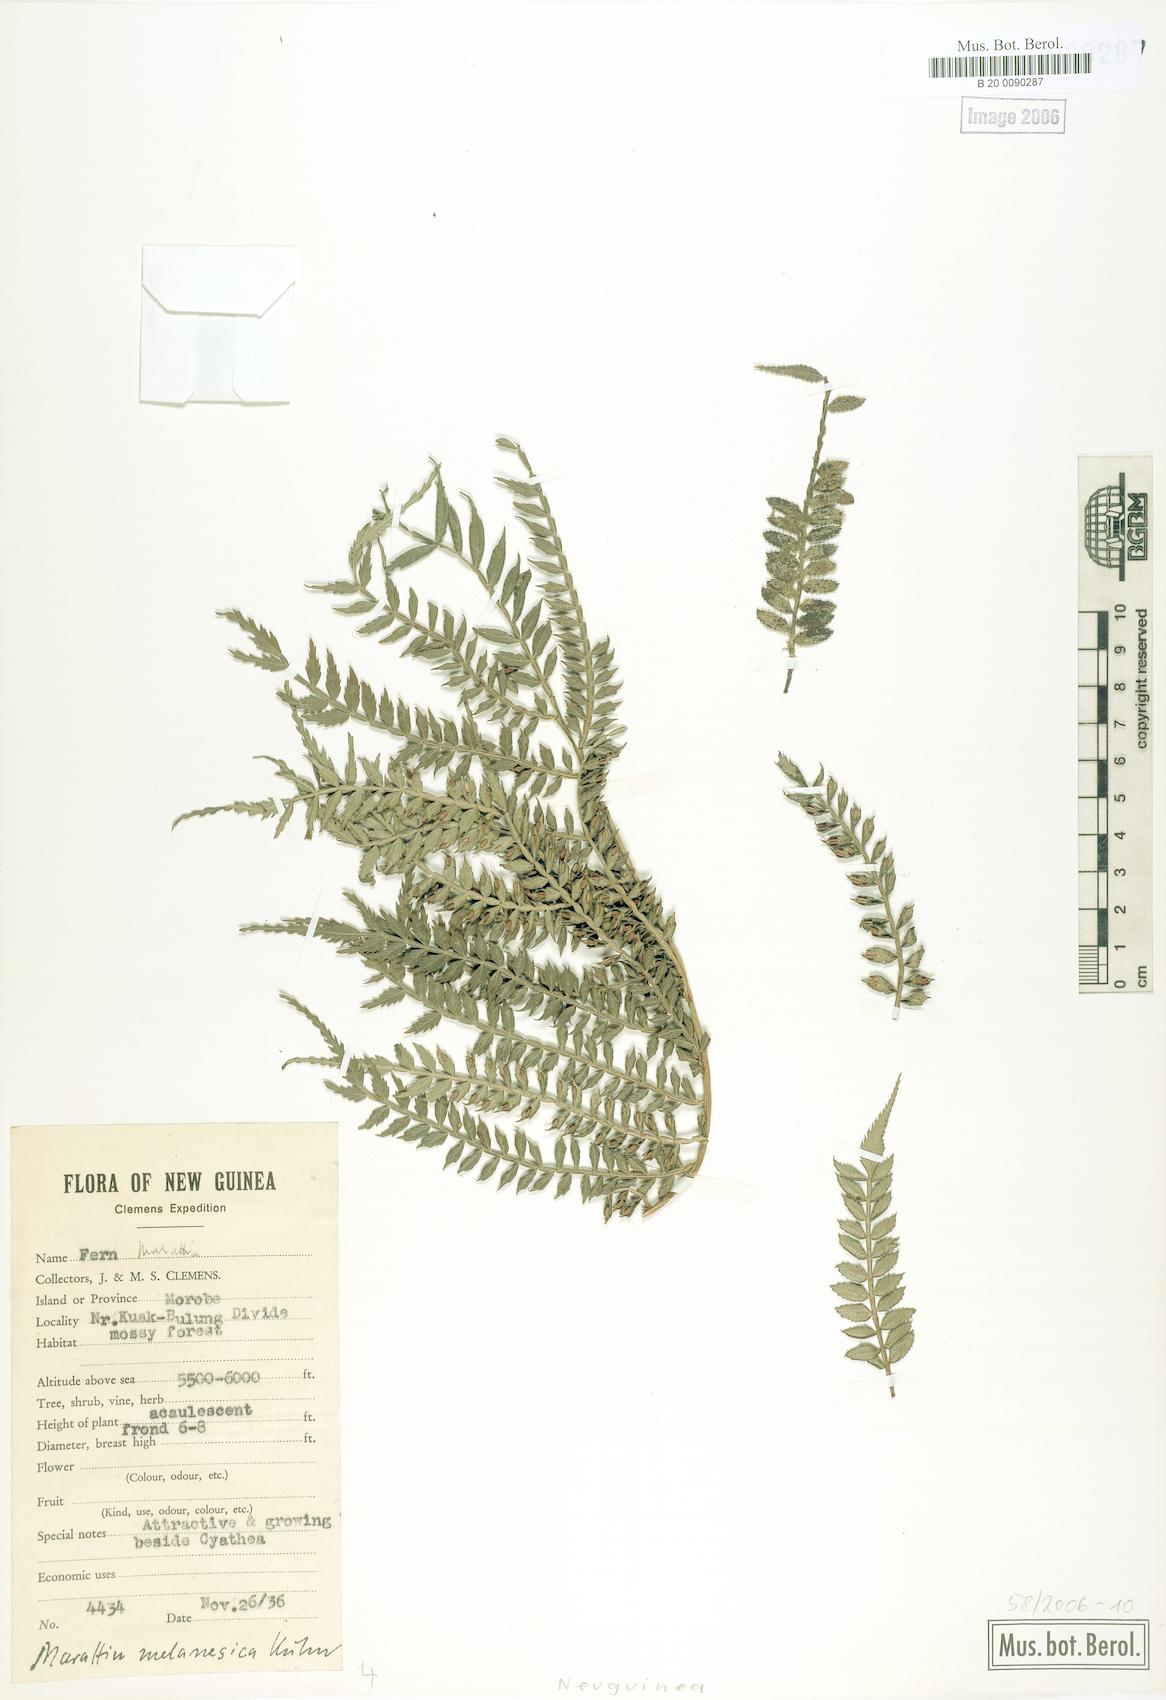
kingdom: Plantae
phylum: Tracheophyta
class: Polypodiopsida
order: Marattiales
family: Marattiaceae
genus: Ptisana
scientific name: Ptisana melanesica
